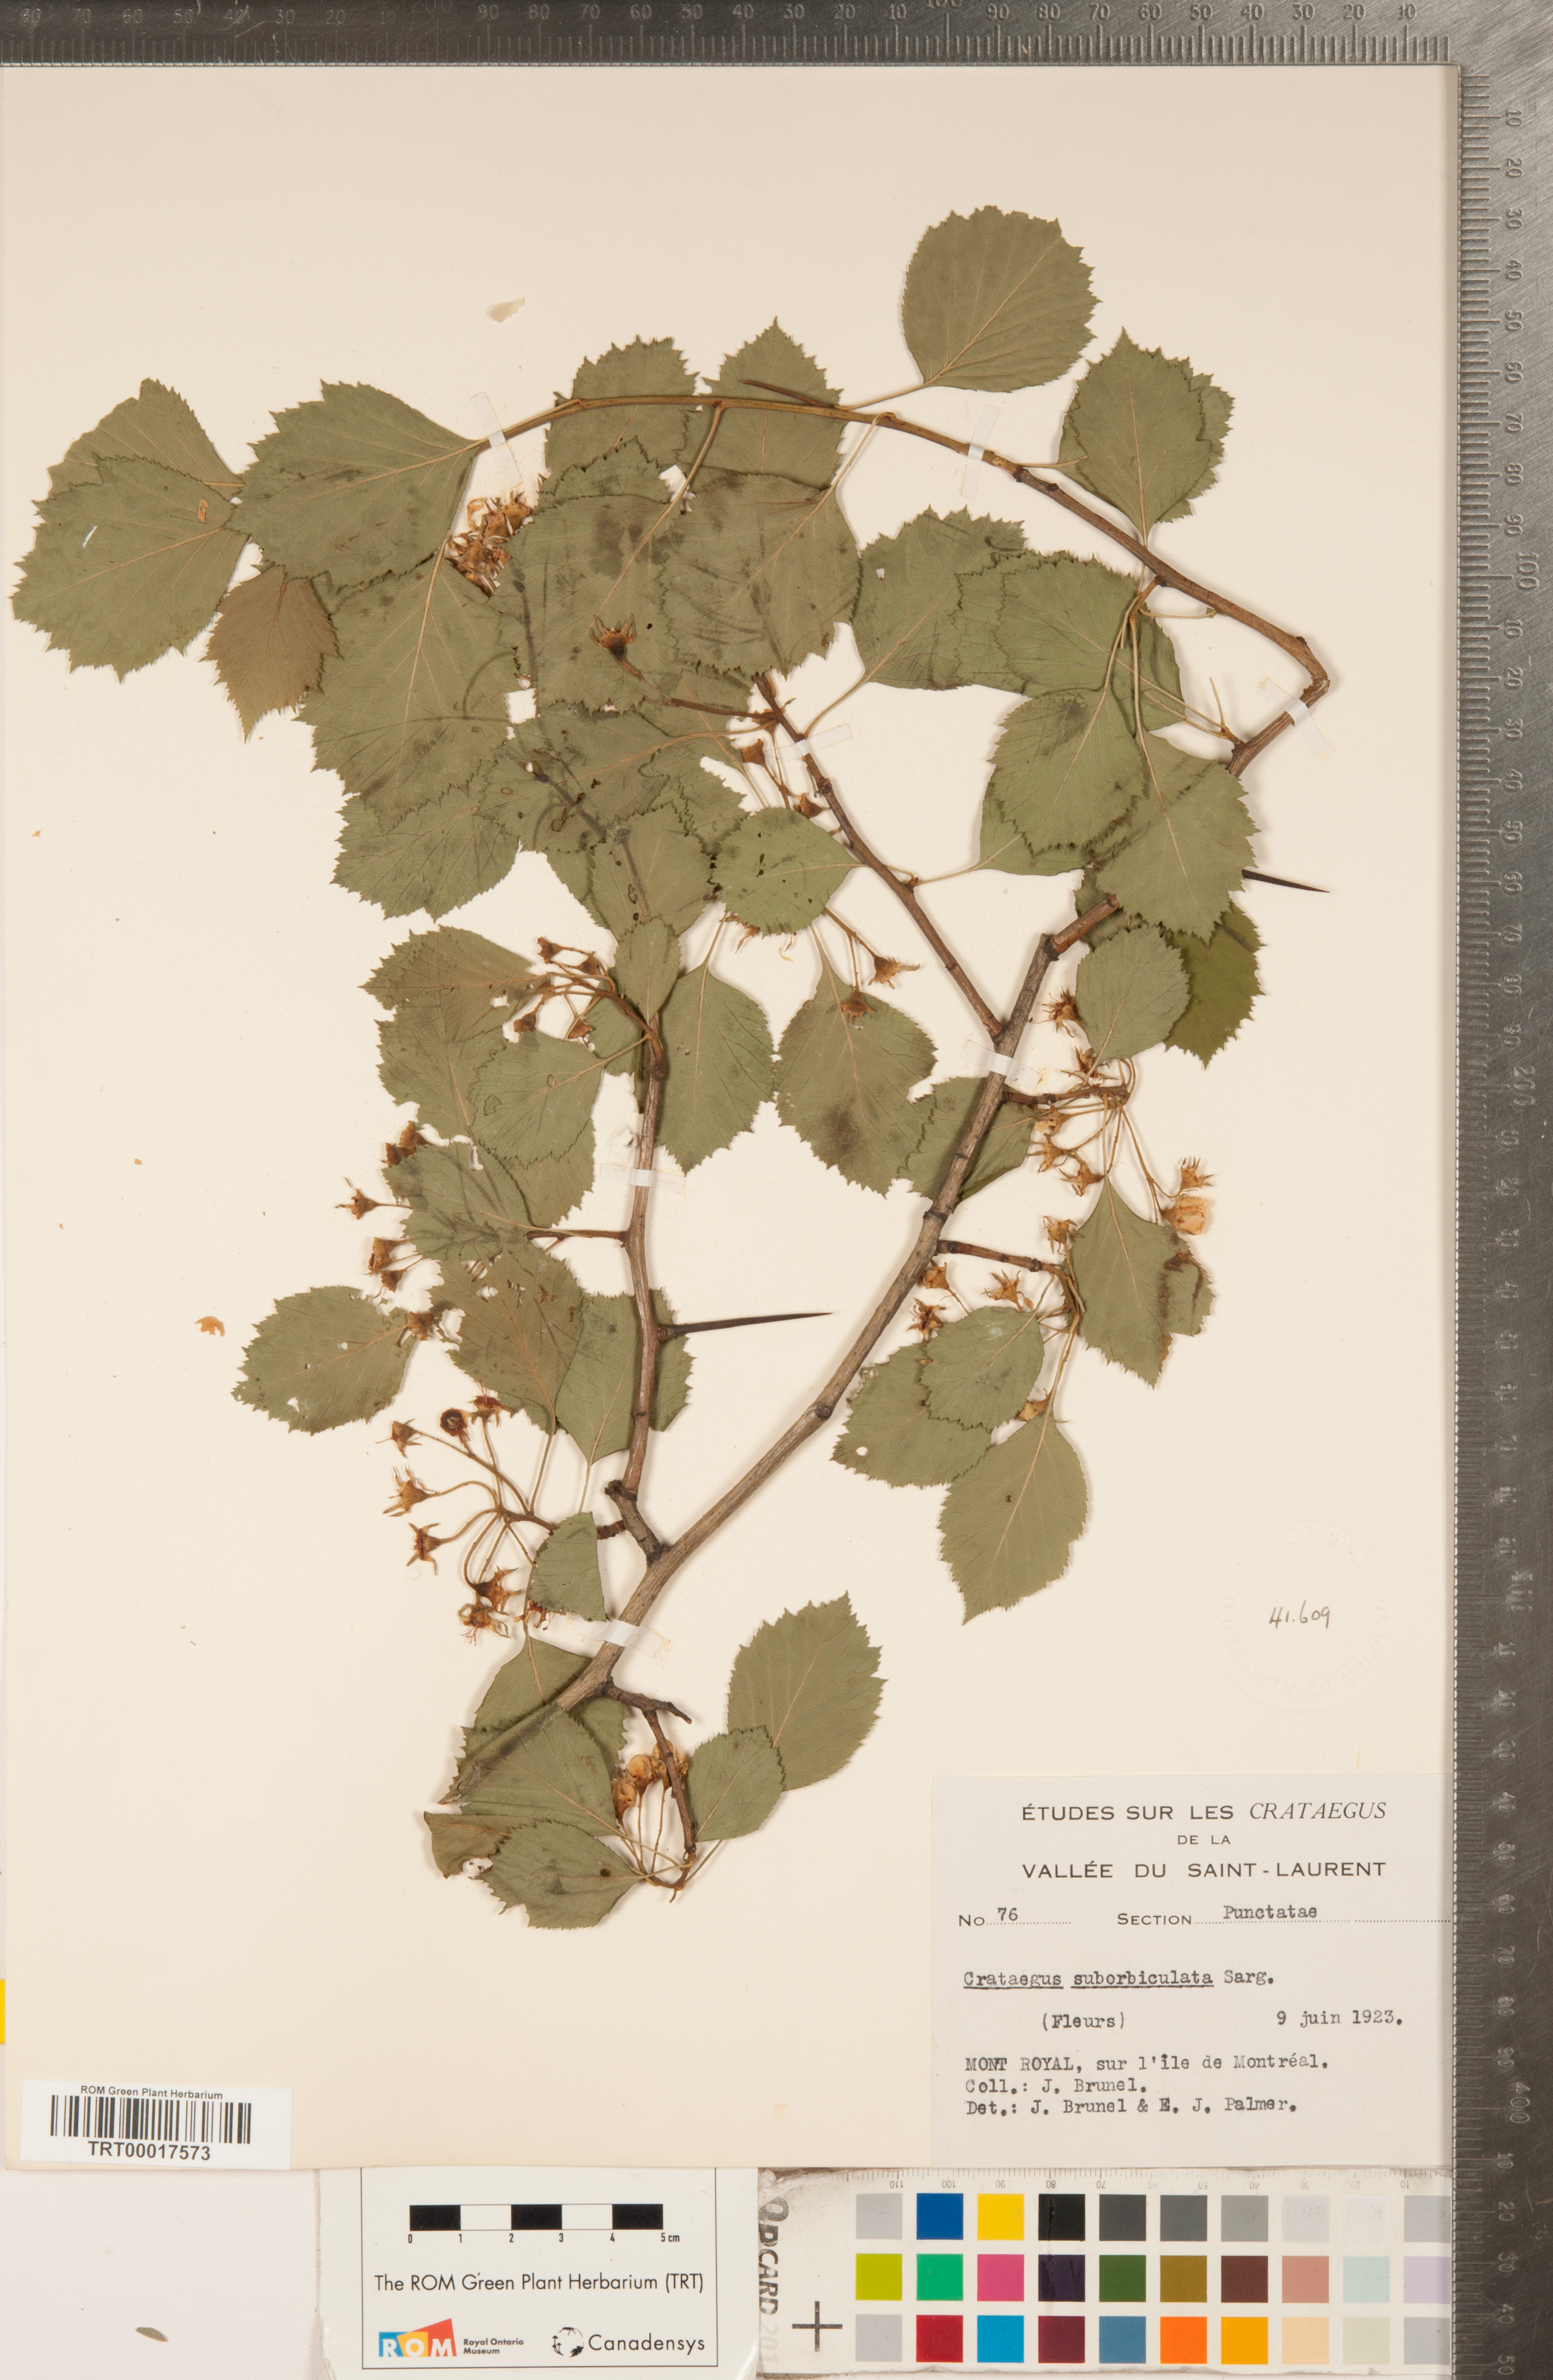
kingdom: Plantae
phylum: Tracheophyta
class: Magnoliopsida
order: Rosales
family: Rosaceae
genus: Crataegus
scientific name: Crataegus suborbiculata
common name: Caughnawaga hawthorn
